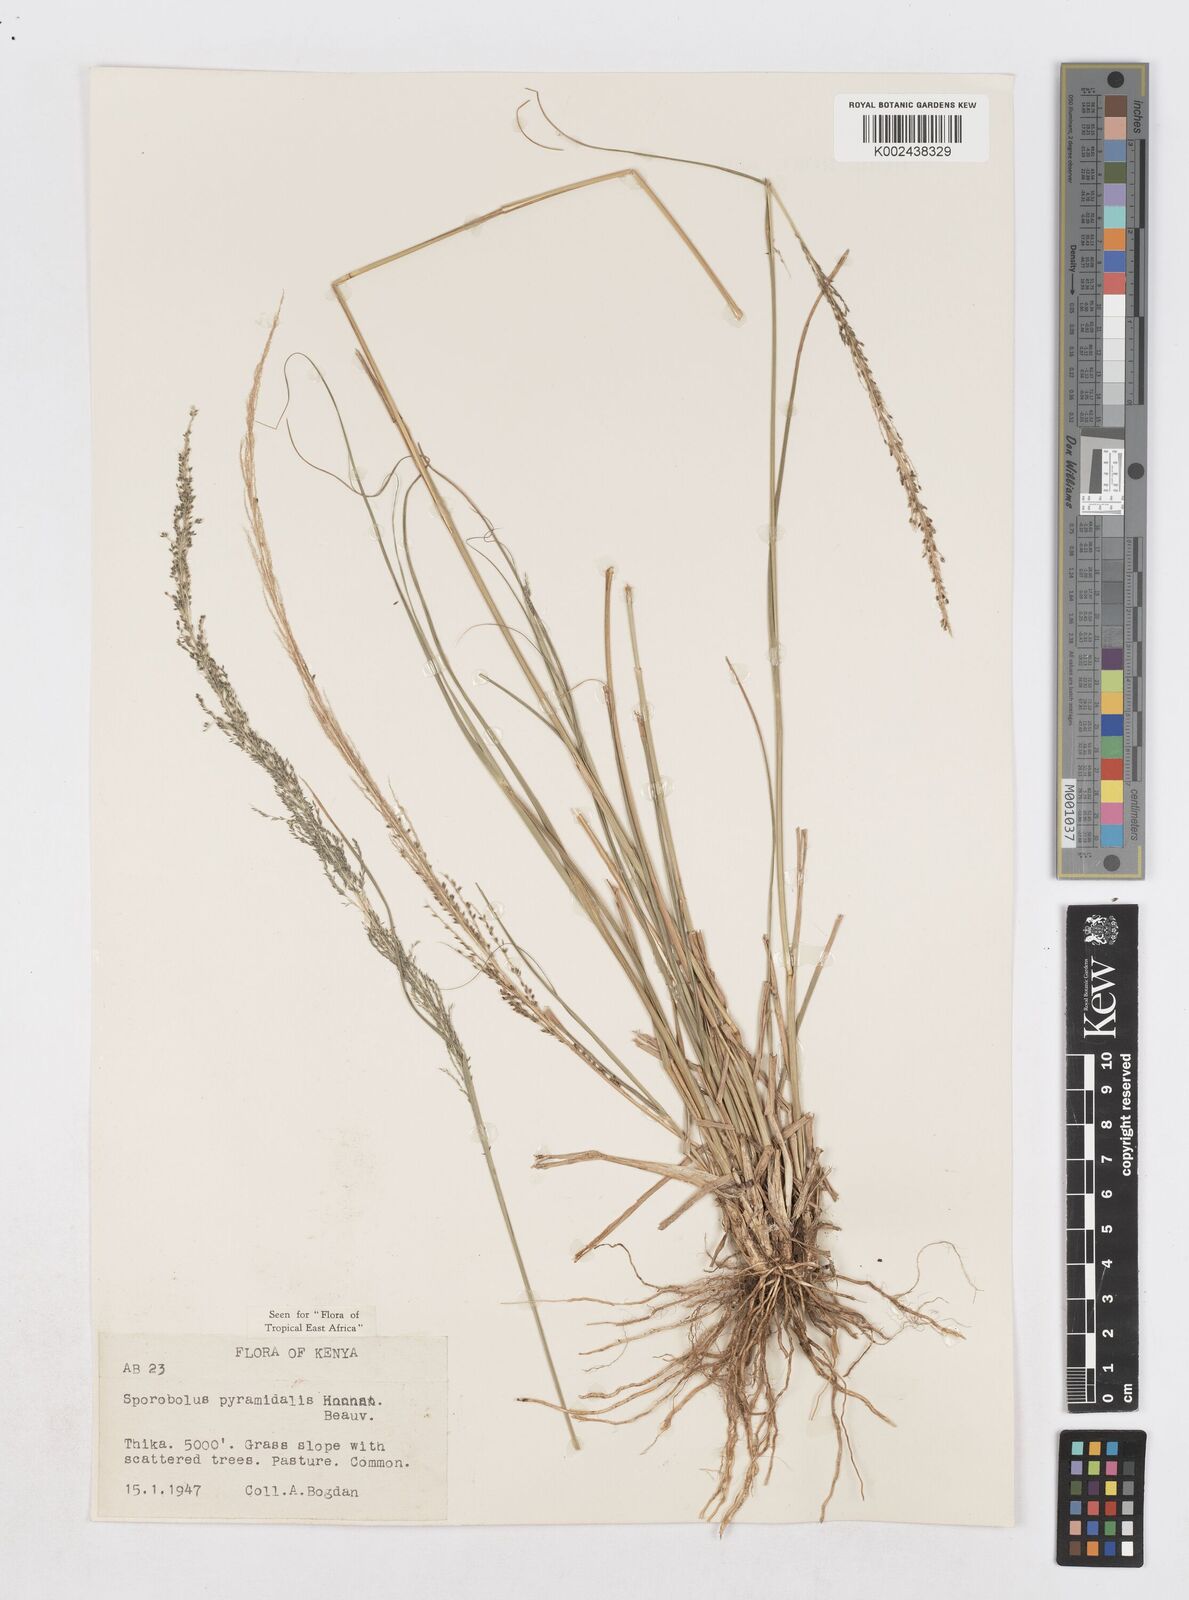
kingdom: Plantae
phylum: Tracheophyta
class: Liliopsida
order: Poales
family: Poaceae
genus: Sporobolus
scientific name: Sporobolus pyramidalis
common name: West indian dropseed
